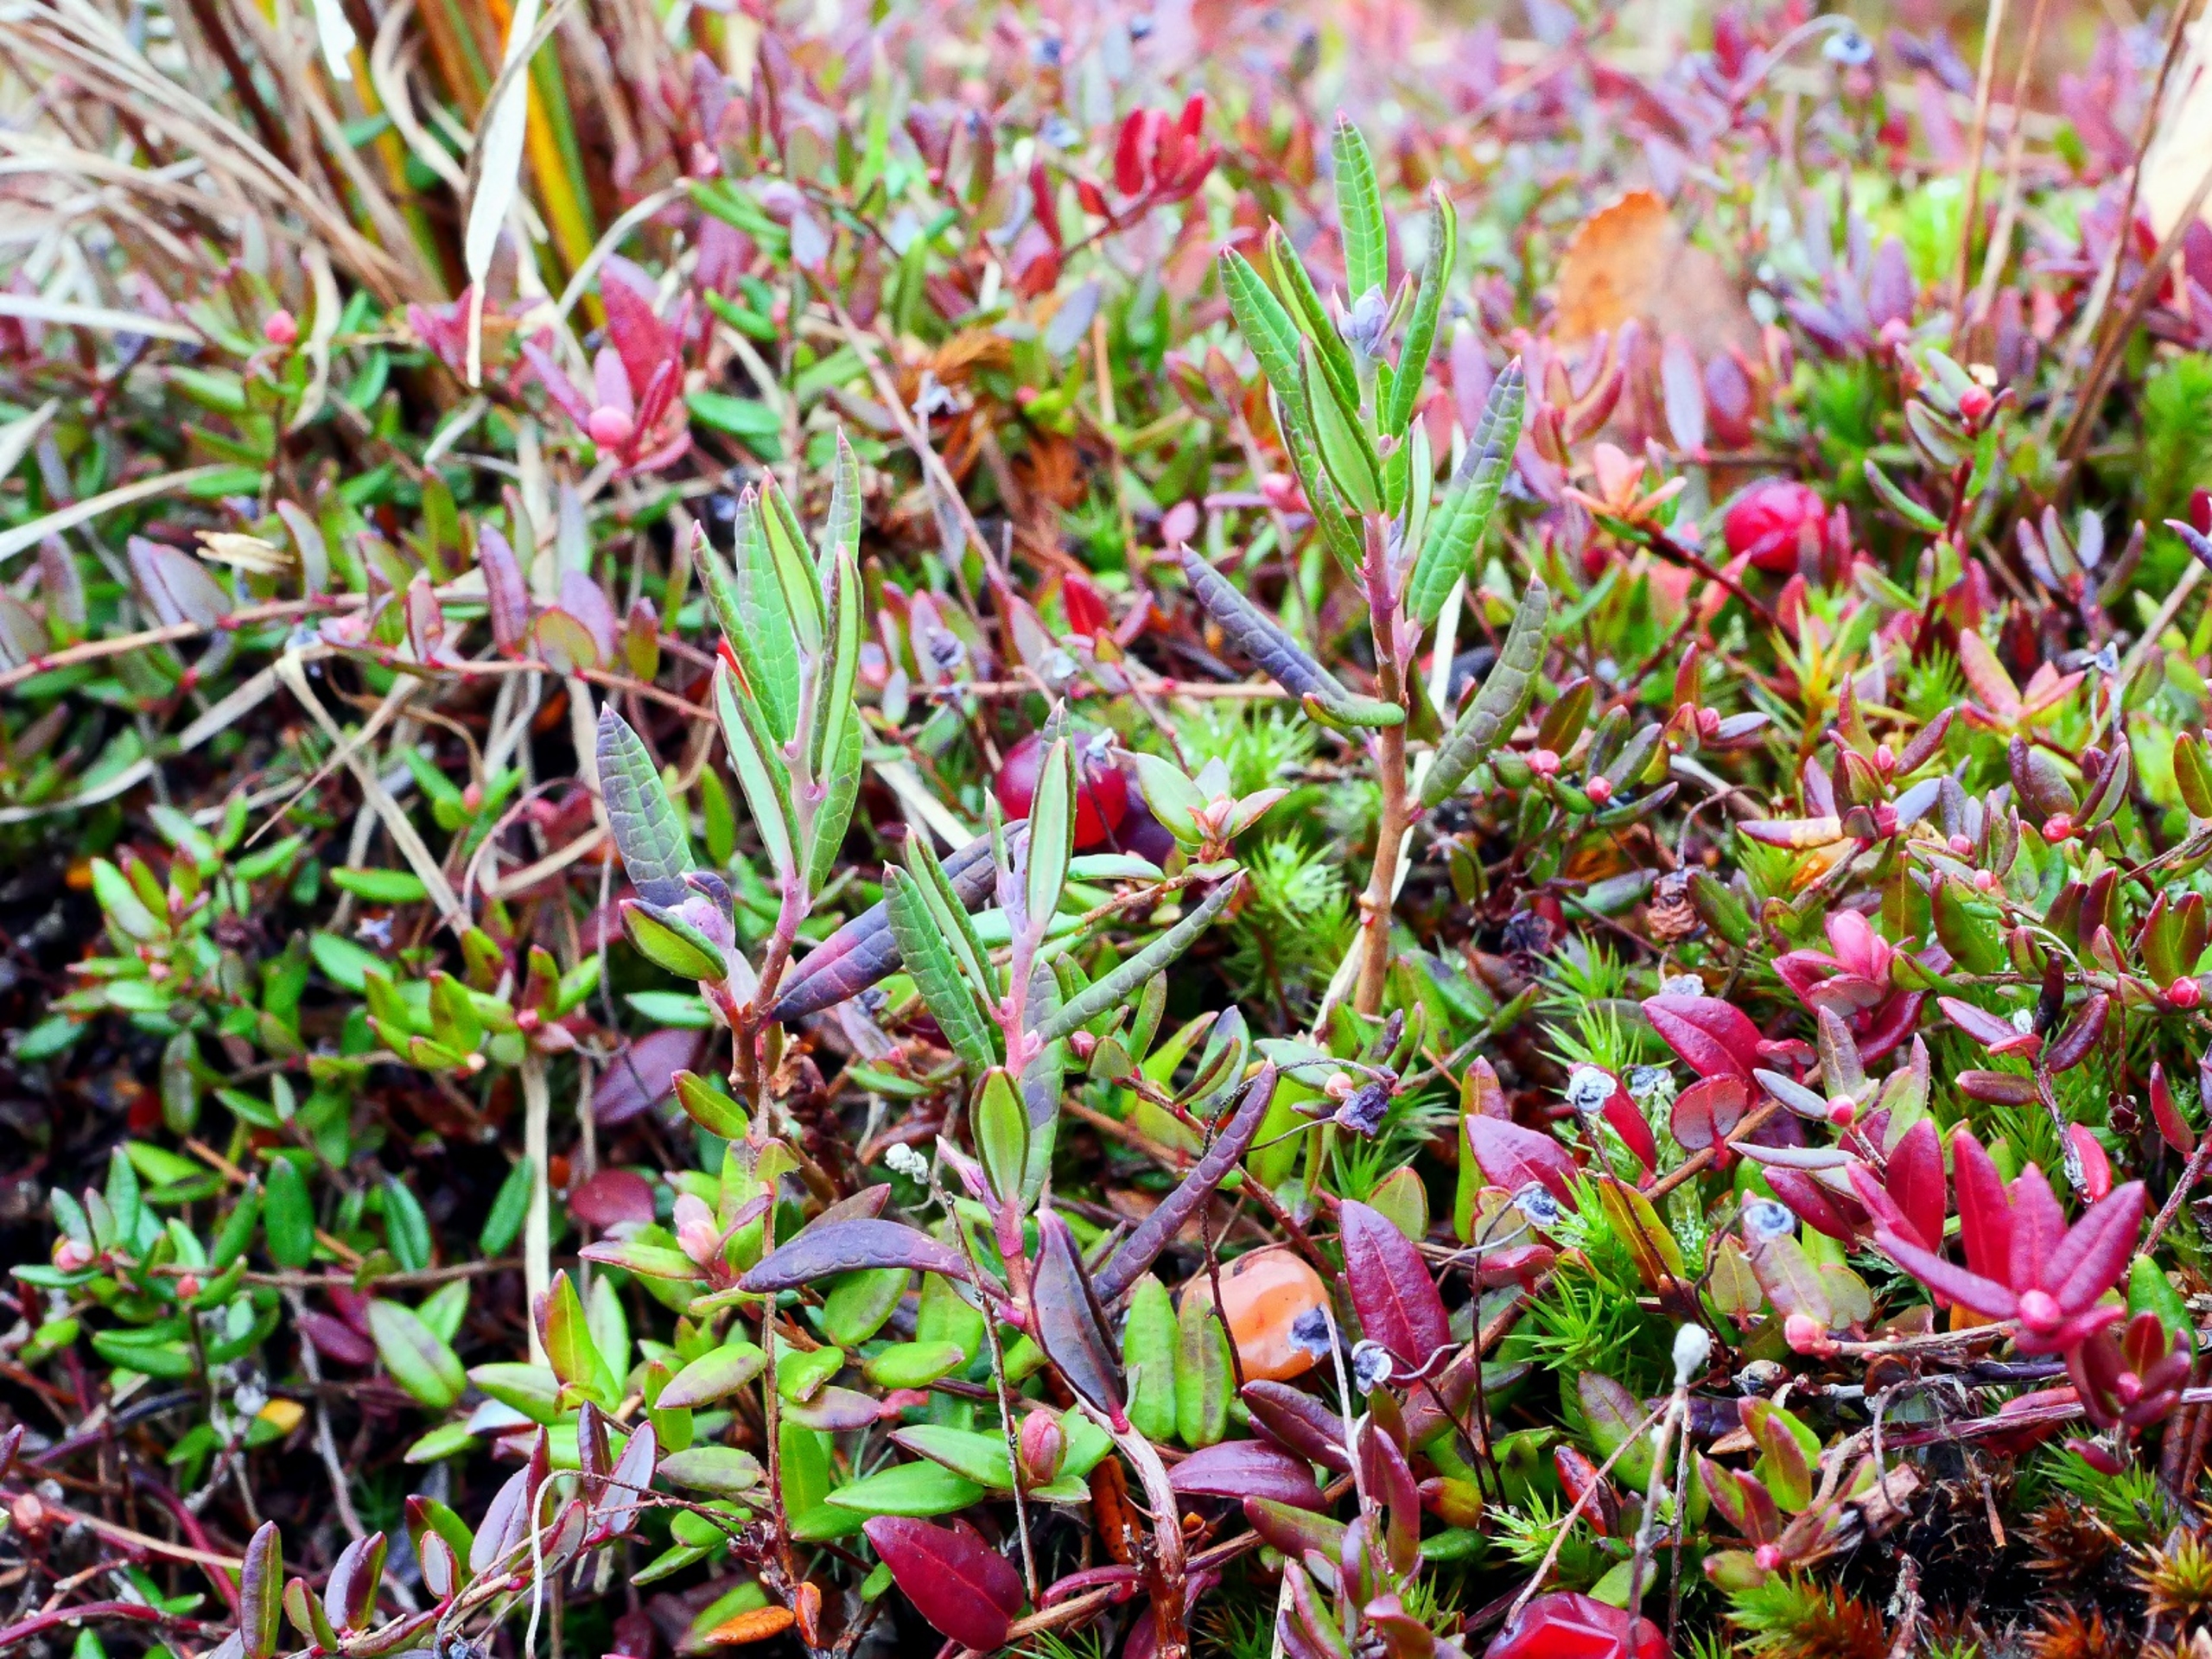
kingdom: Plantae
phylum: Tracheophyta
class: Magnoliopsida
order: Ericales
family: Ericaceae
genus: Andromeda
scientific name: Andromeda polifolia
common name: Rosmarinlyng
